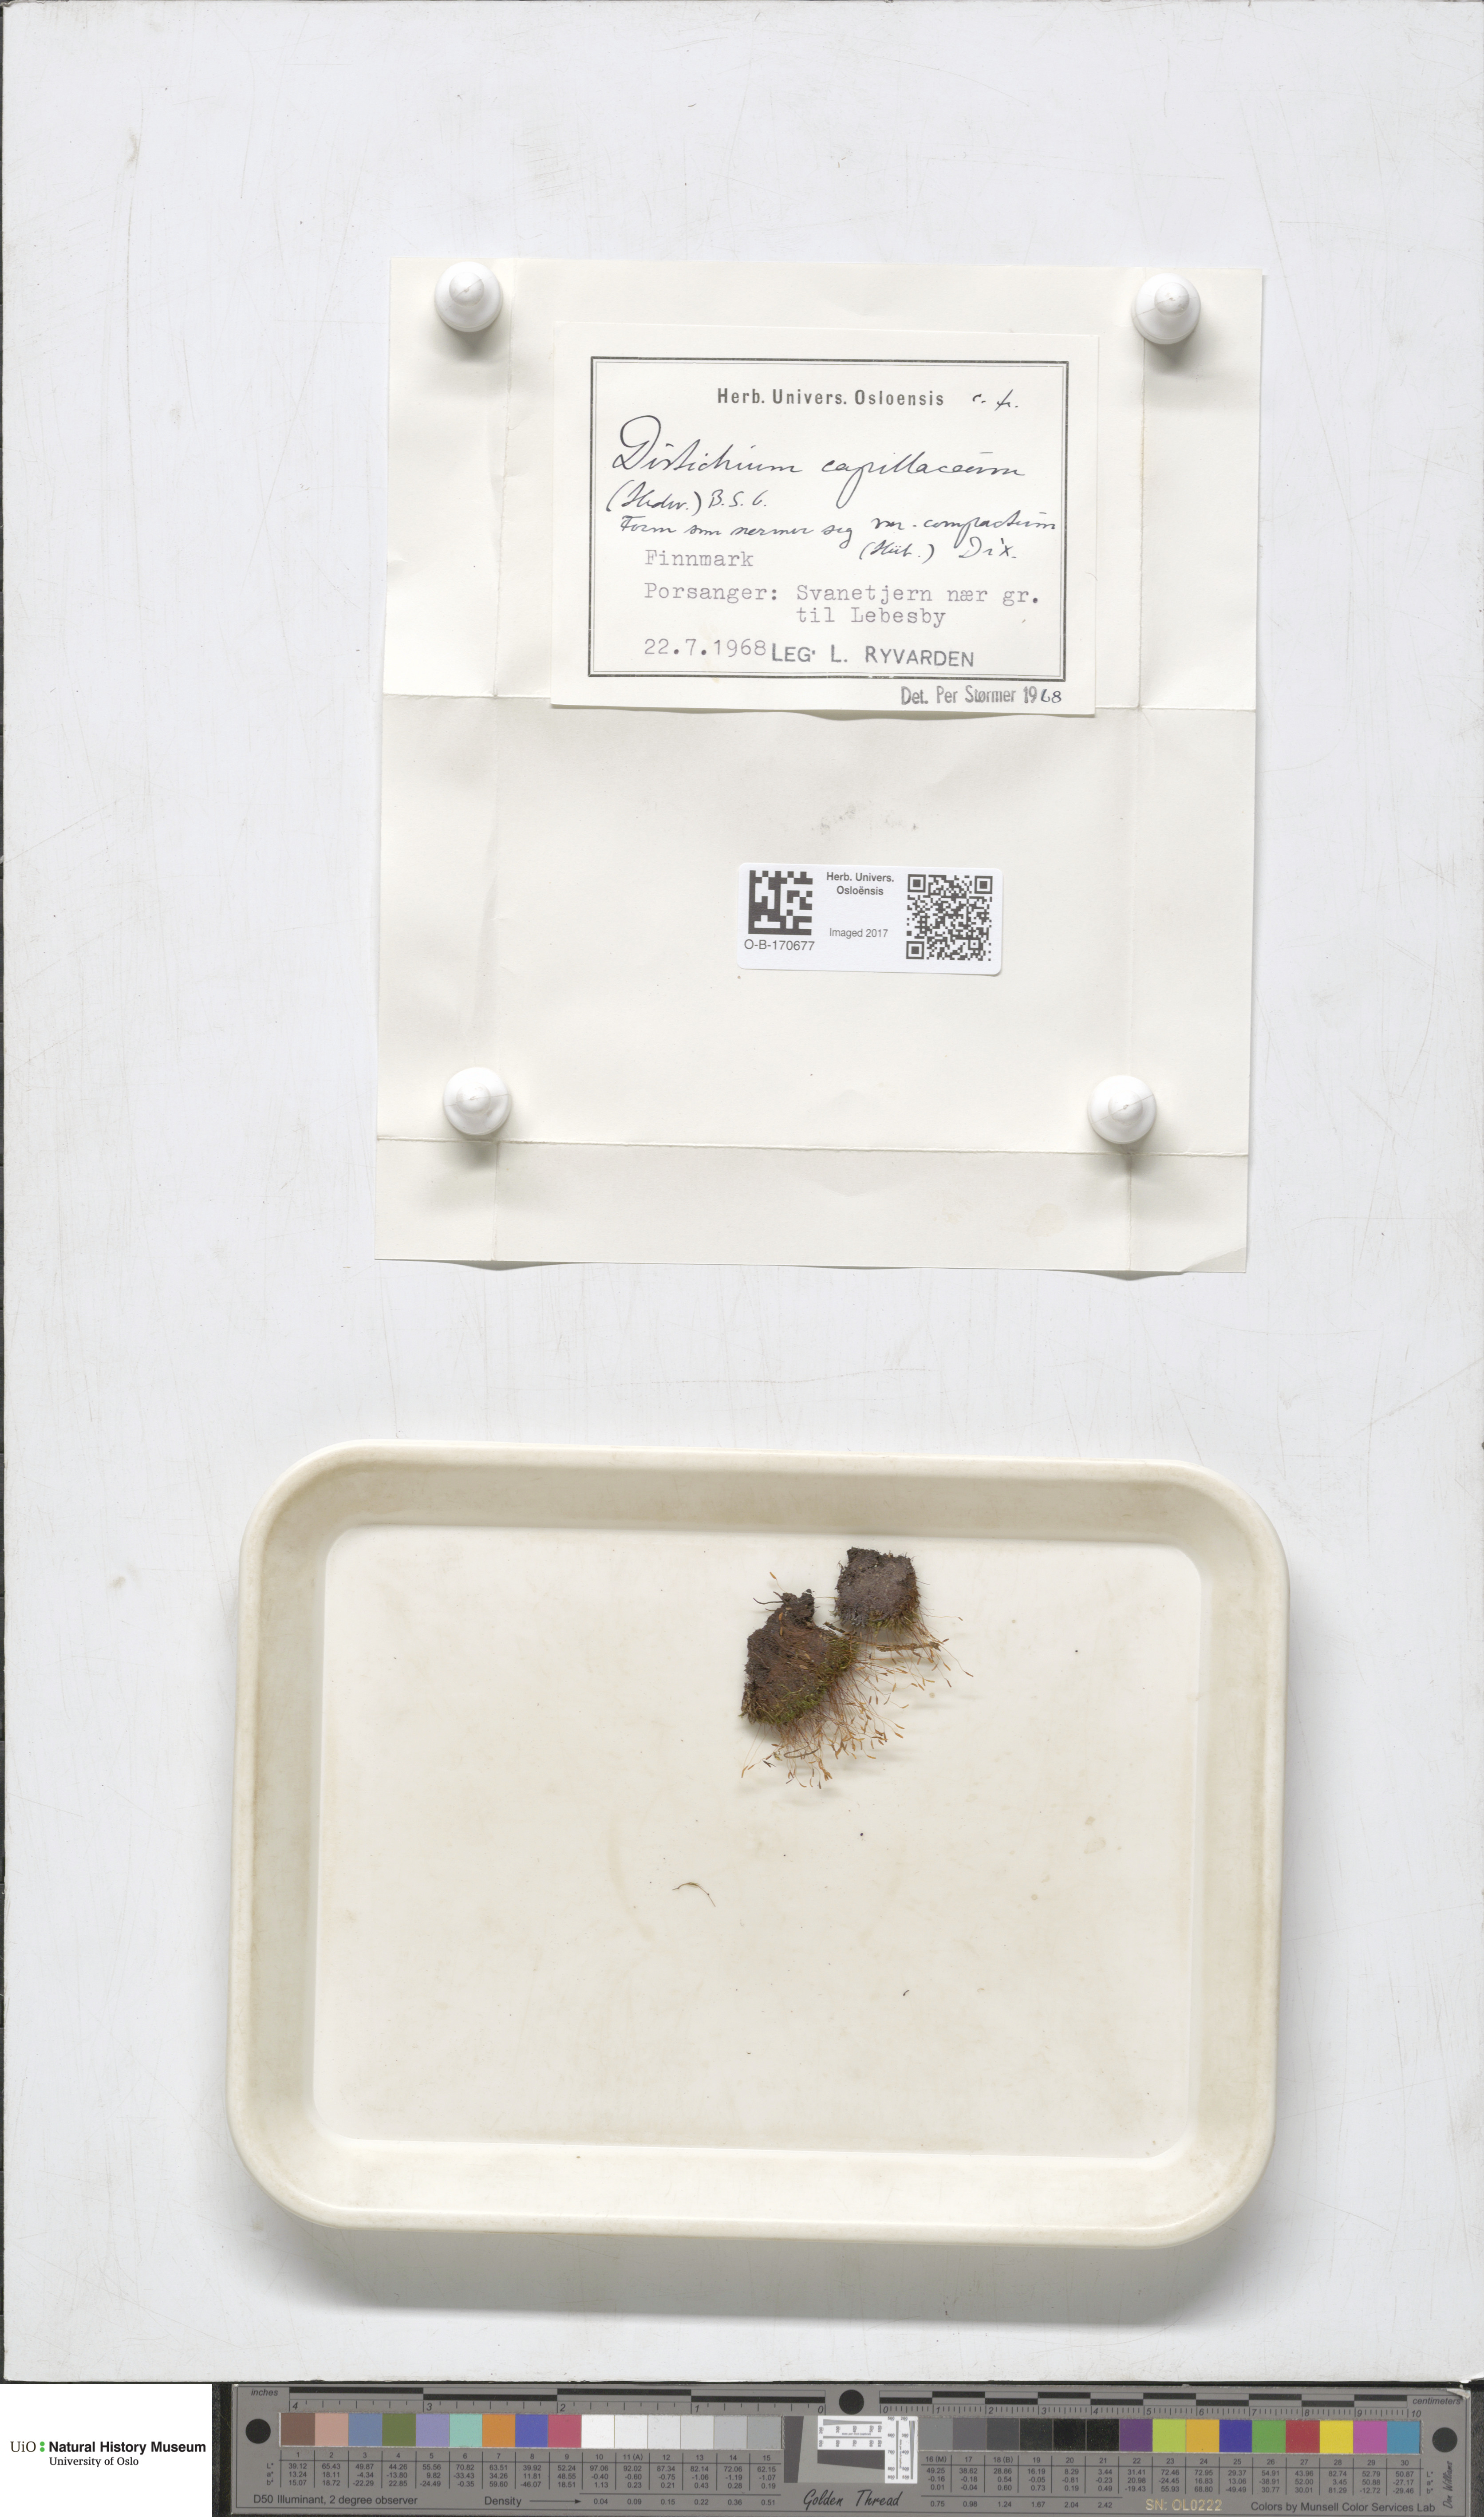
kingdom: Plantae
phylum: Bryophyta
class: Bryopsida
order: Scouleriales
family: Distichiaceae
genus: Distichium
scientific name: Distichium capillaceum
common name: Erect-fruited iris moss
